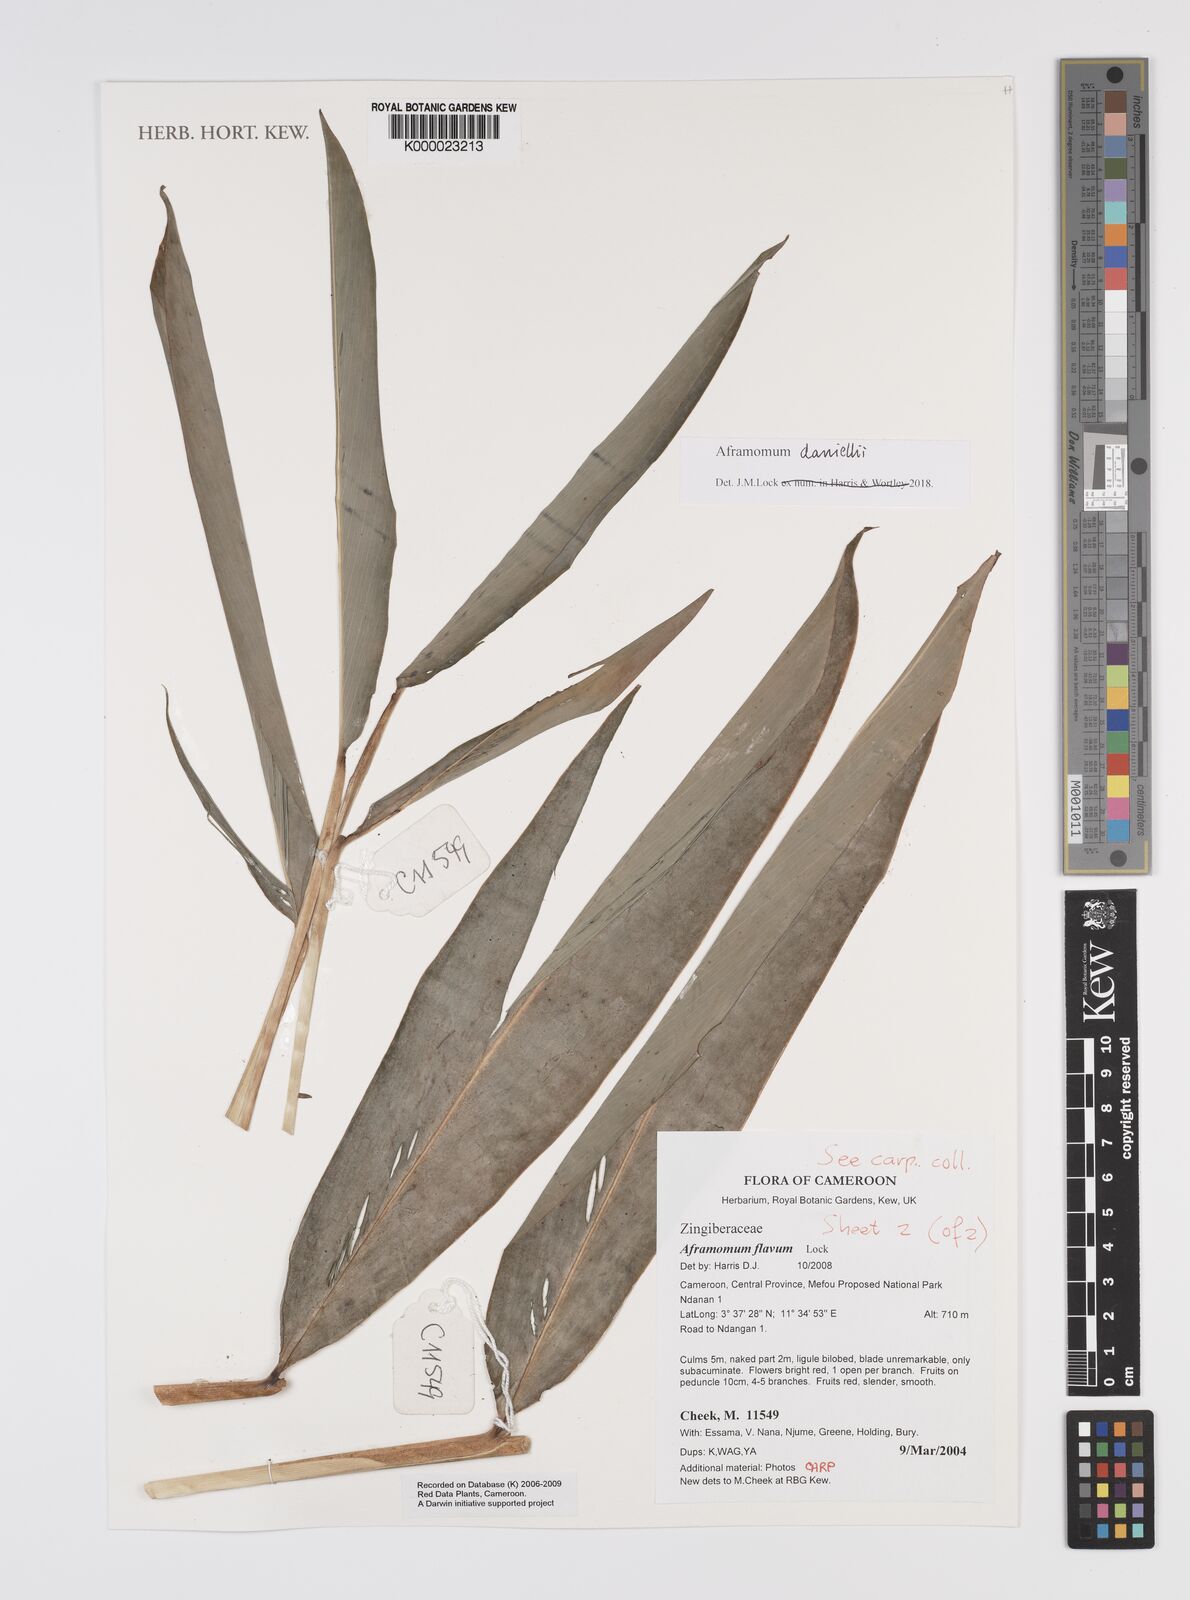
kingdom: Plantae
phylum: Tracheophyta
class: Liliopsida
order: Zingiberales
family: Zingiberaceae
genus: Aframomum
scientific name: Aframomum daniellii
